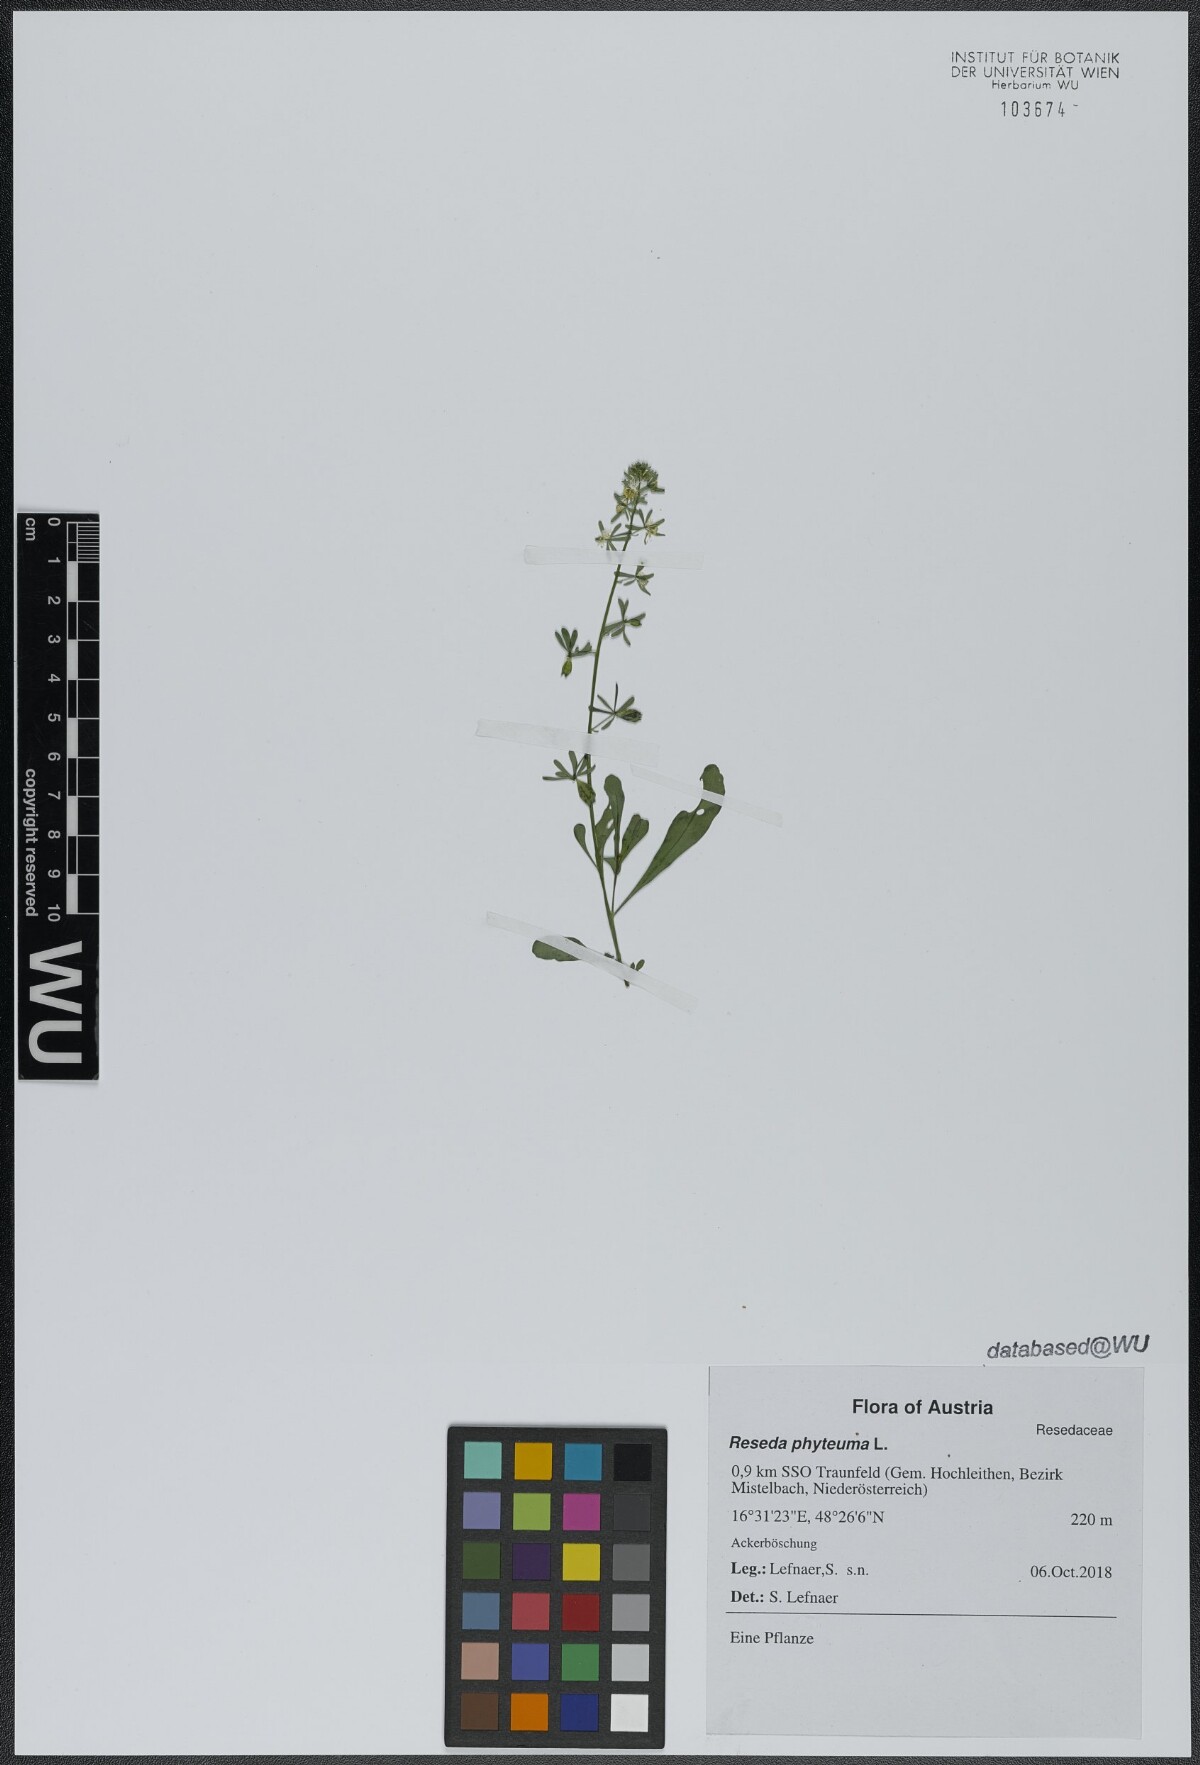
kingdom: Plantae
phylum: Tracheophyta
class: Magnoliopsida
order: Brassicales
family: Resedaceae
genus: Reseda
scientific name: Reseda phyteuma
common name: Corn mignonette
